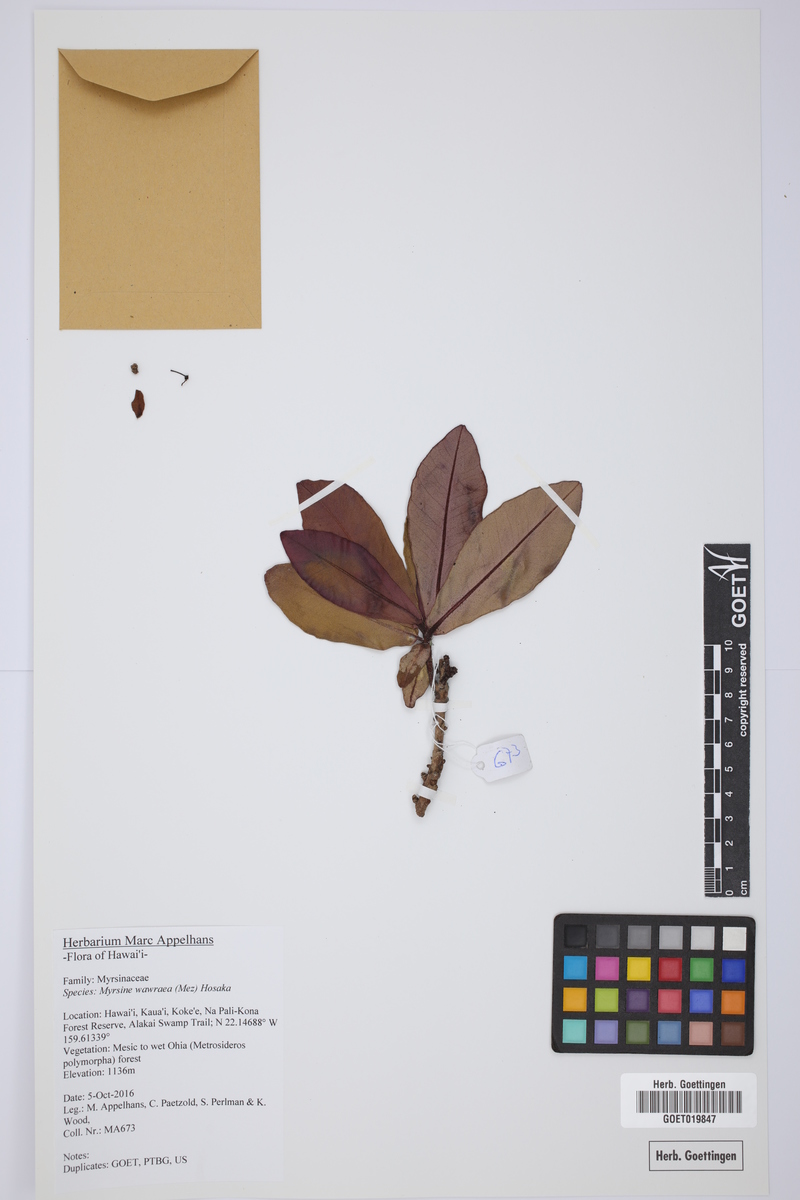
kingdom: Plantae
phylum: Tracheophyta
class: Magnoliopsida
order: Ericales
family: Primulaceae
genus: Myrsine
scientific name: Myrsine wawraea
